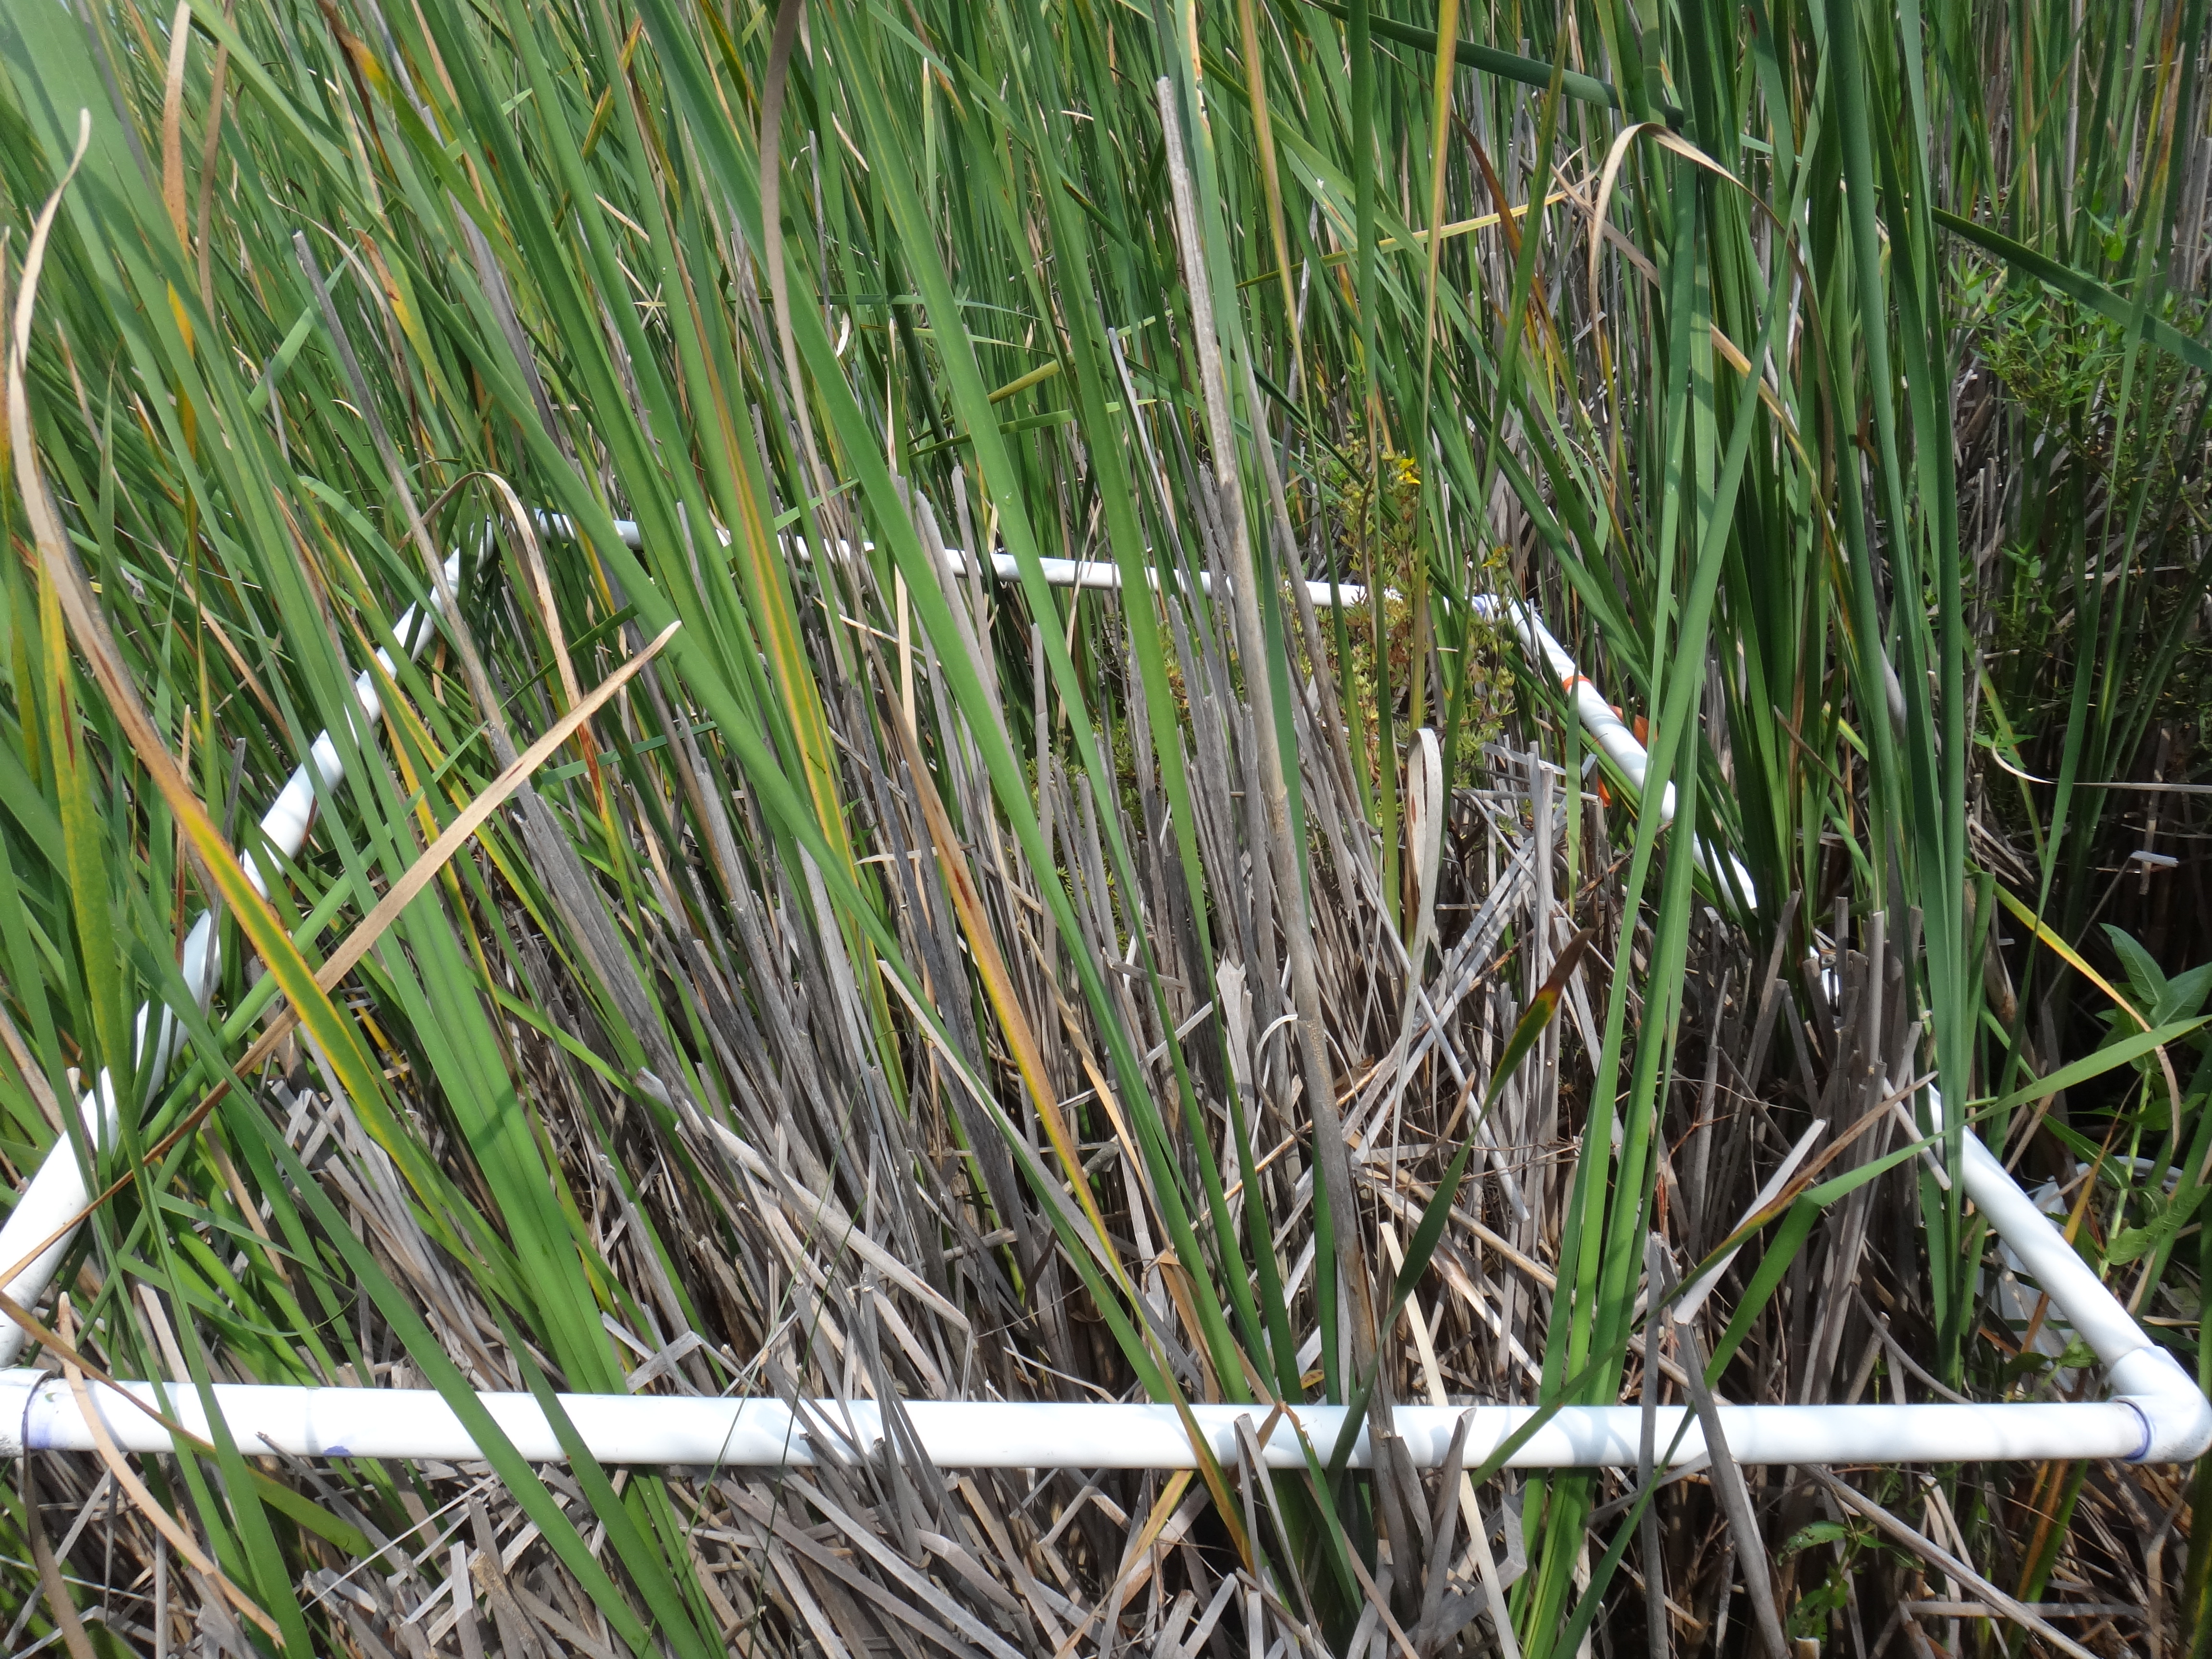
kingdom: Plantae
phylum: Tracheophyta
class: Liliopsida
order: Poales
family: Typhaceae
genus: Typha
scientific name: Typha
